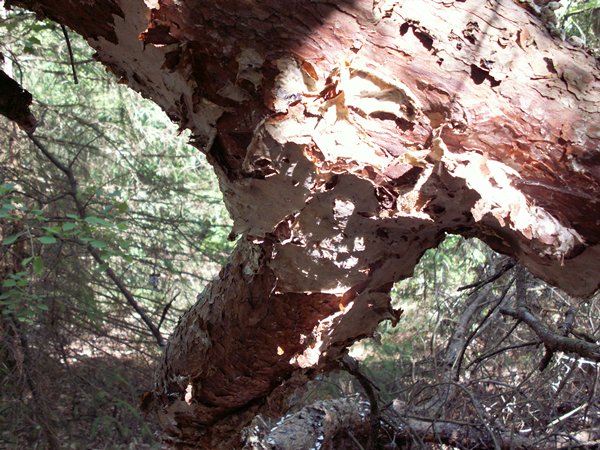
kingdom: Fungi
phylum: Basidiomycota
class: Agaricomycetes
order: Polyporales
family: Phanerochaetaceae
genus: Phlebiopsis
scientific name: Phlebiopsis gigantea
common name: kæmpebarksvamp
